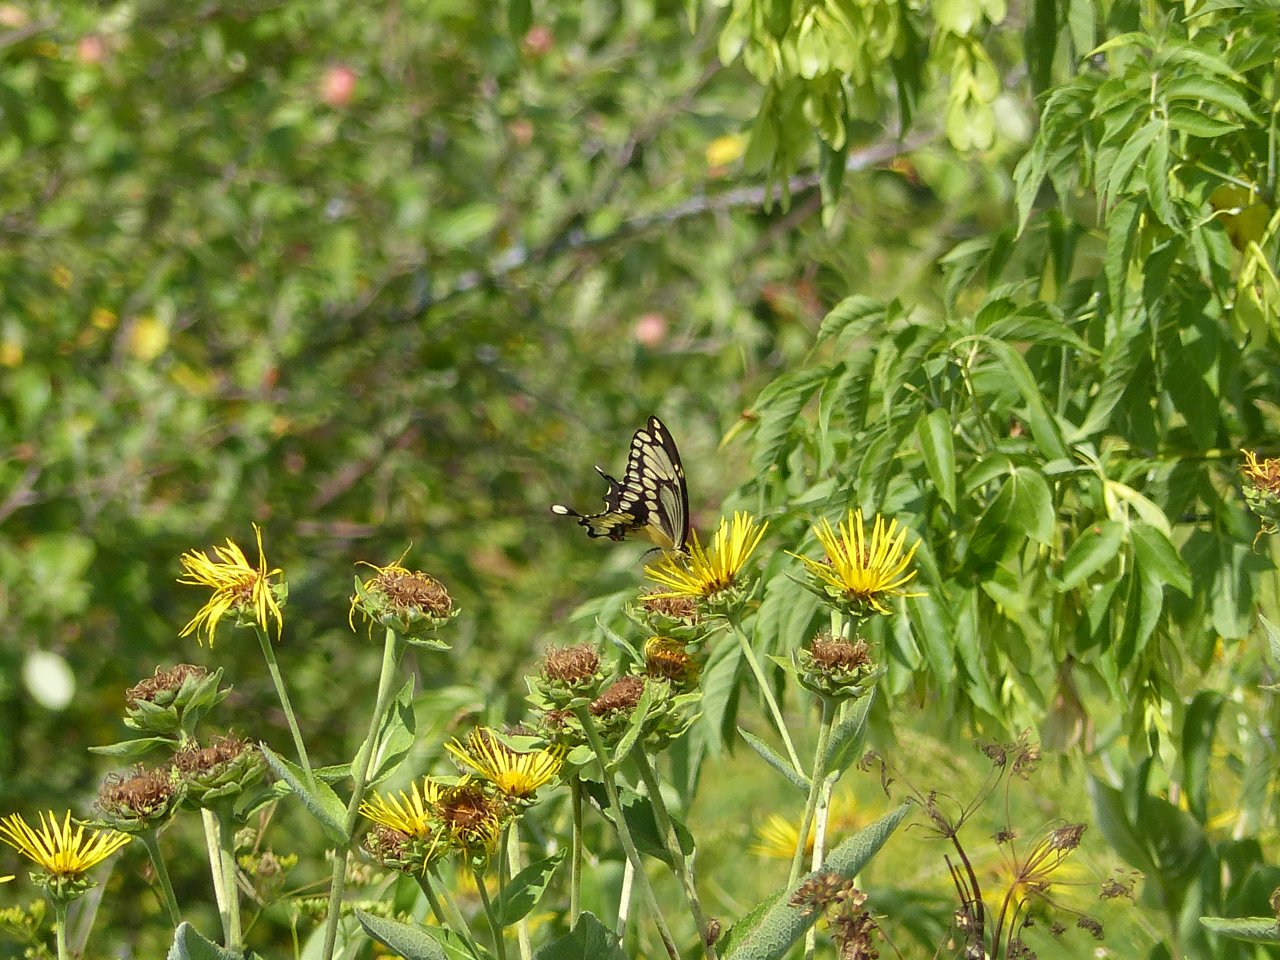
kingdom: Animalia
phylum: Arthropoda
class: Insecta
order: Lepidoptera
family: Papilionidae
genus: Papilio
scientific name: Papilio cresphontes
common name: Eastern Giant Swallowtail
